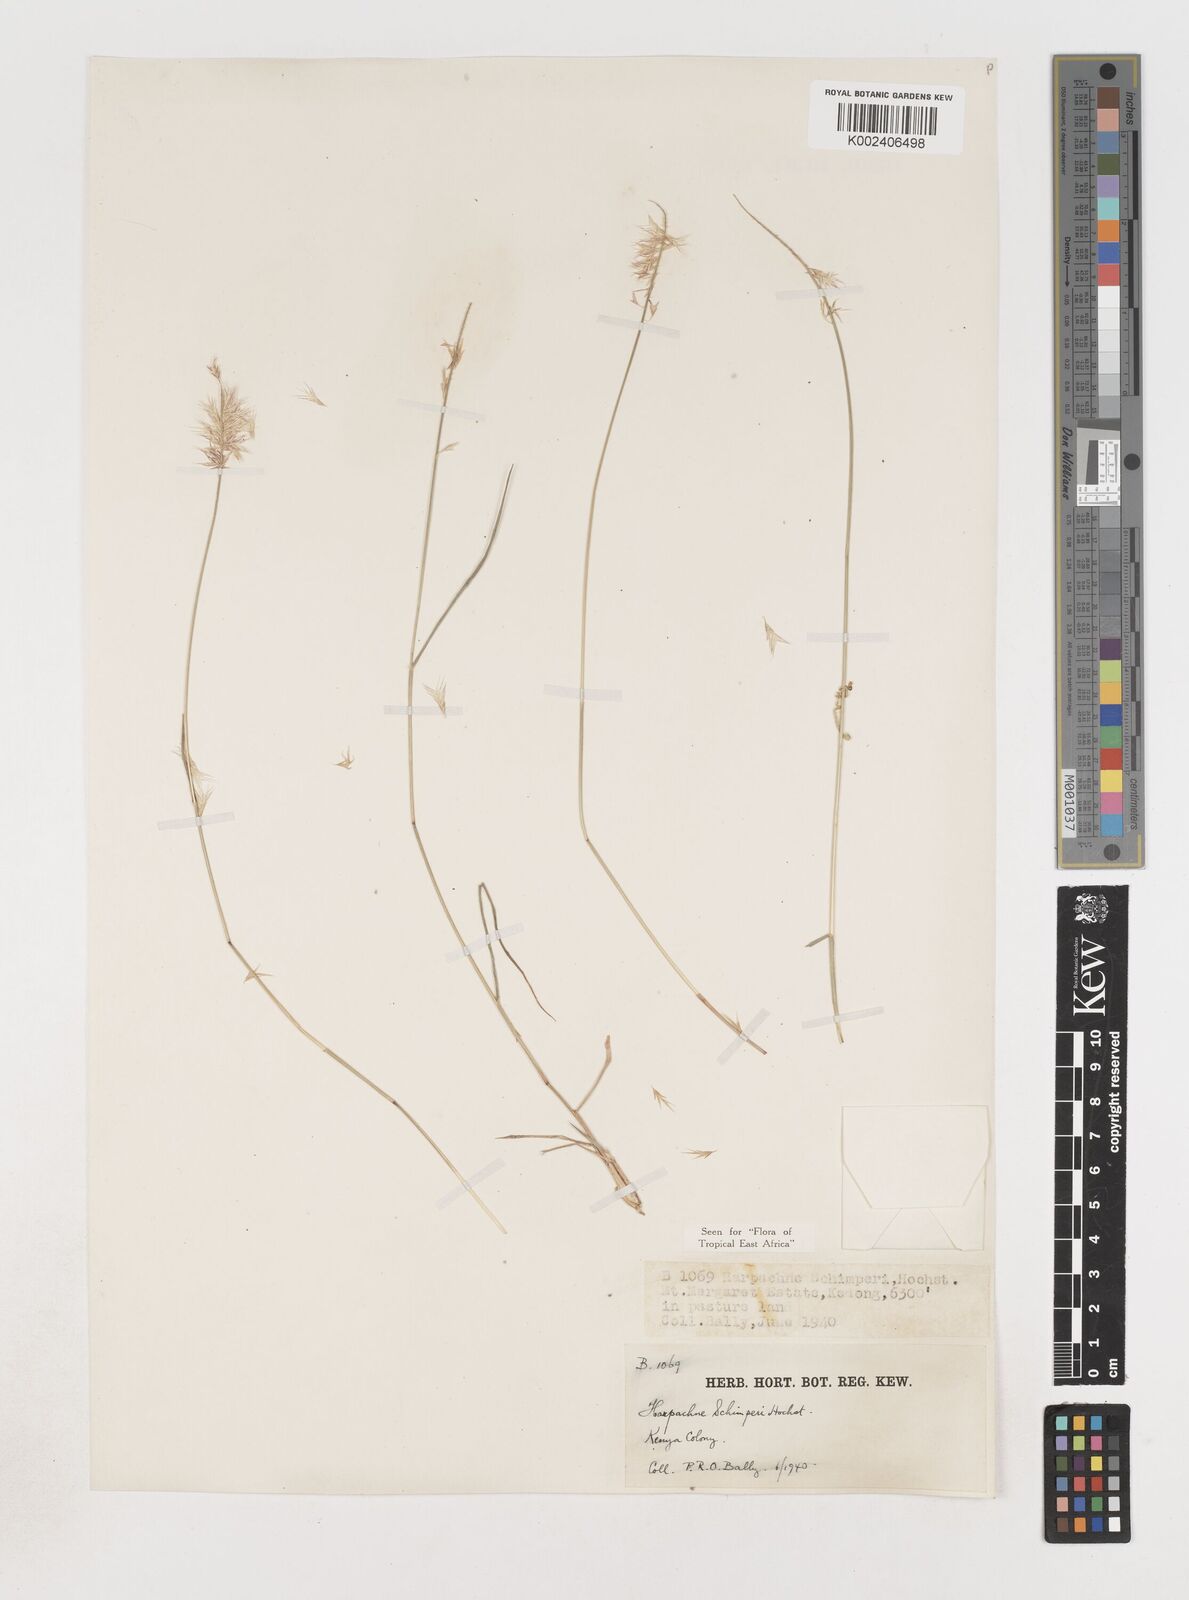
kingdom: Plantae
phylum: Tracheophyta
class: Liliopsida
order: Poales
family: Poaceae
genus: Harpachne
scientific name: Harpachne schimperi
